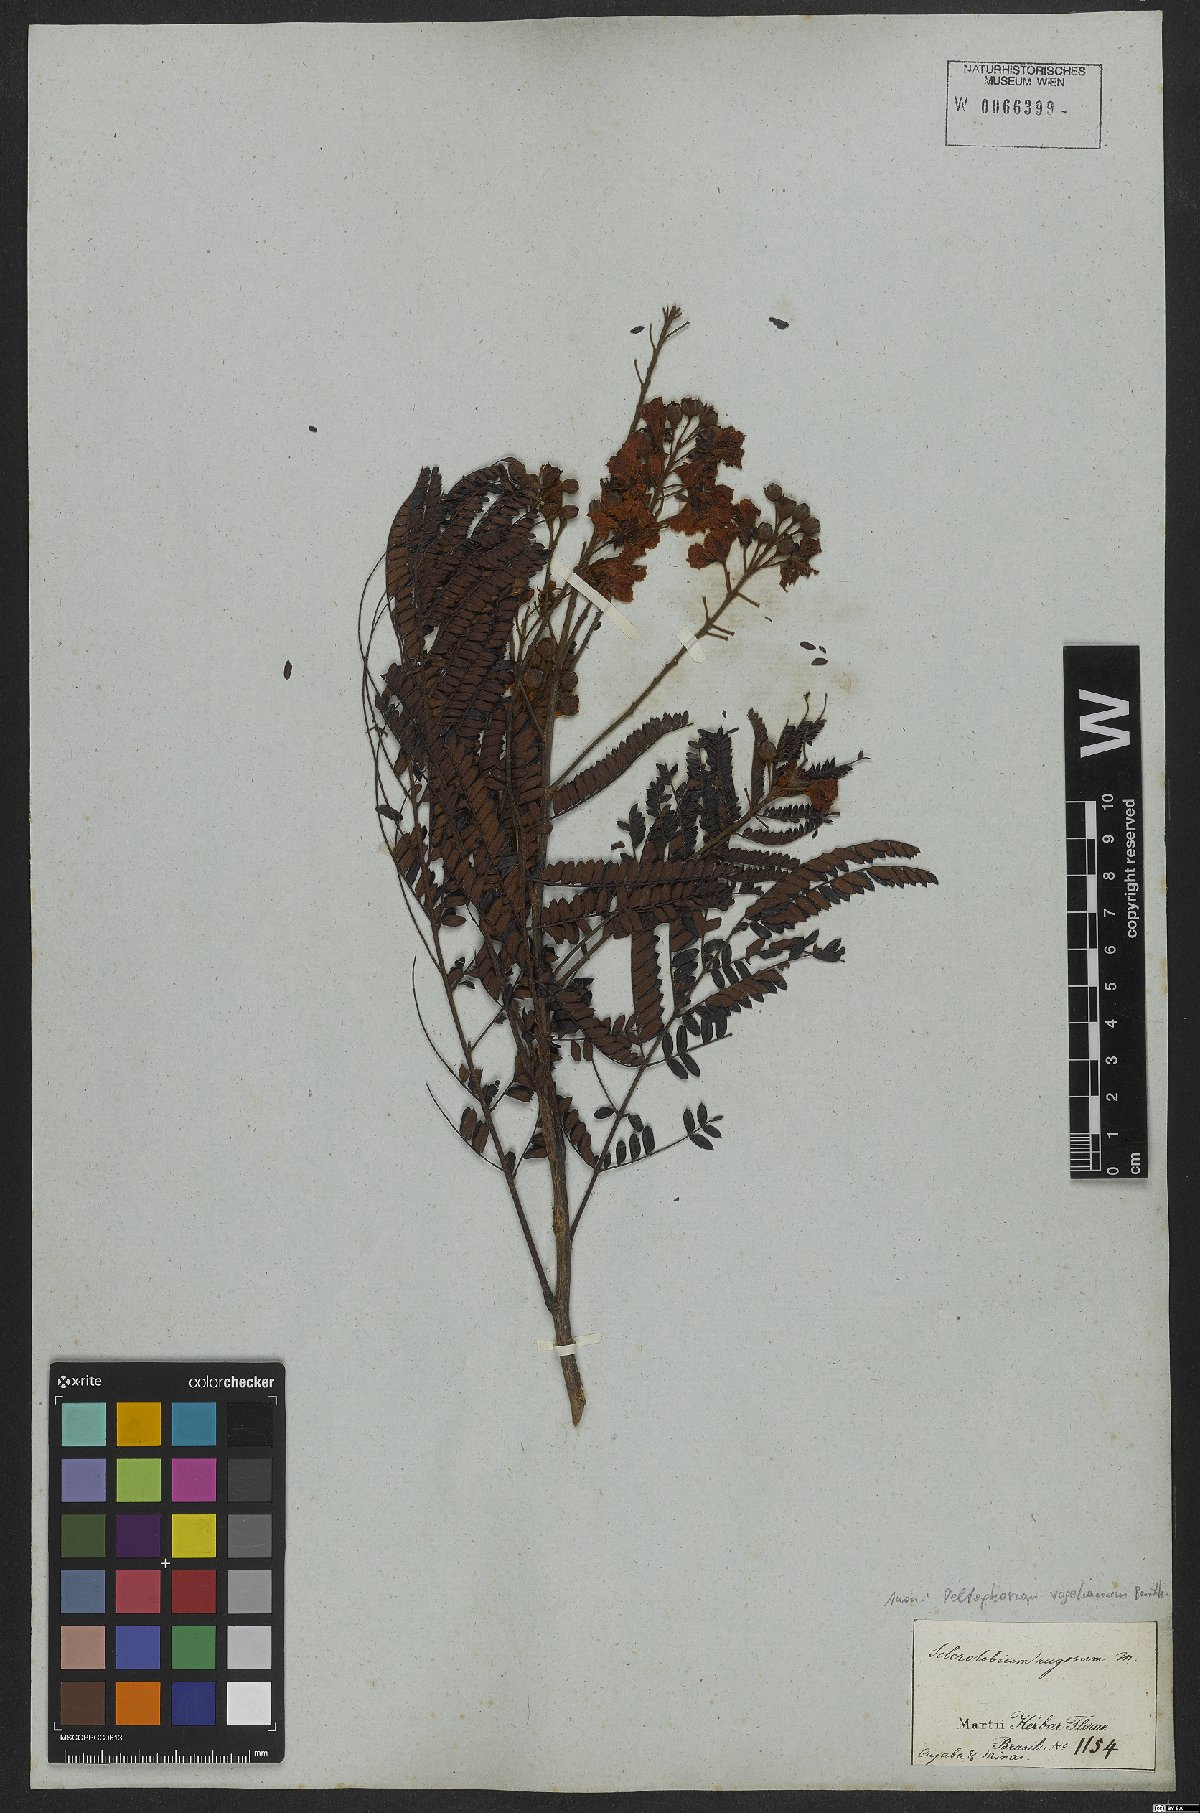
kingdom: Plantae
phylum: Tracheophyta
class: Magnoliopsida
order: Fabales
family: Fabaceae
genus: Peltophorum
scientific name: Peltophorum dubium
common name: Horsebush
